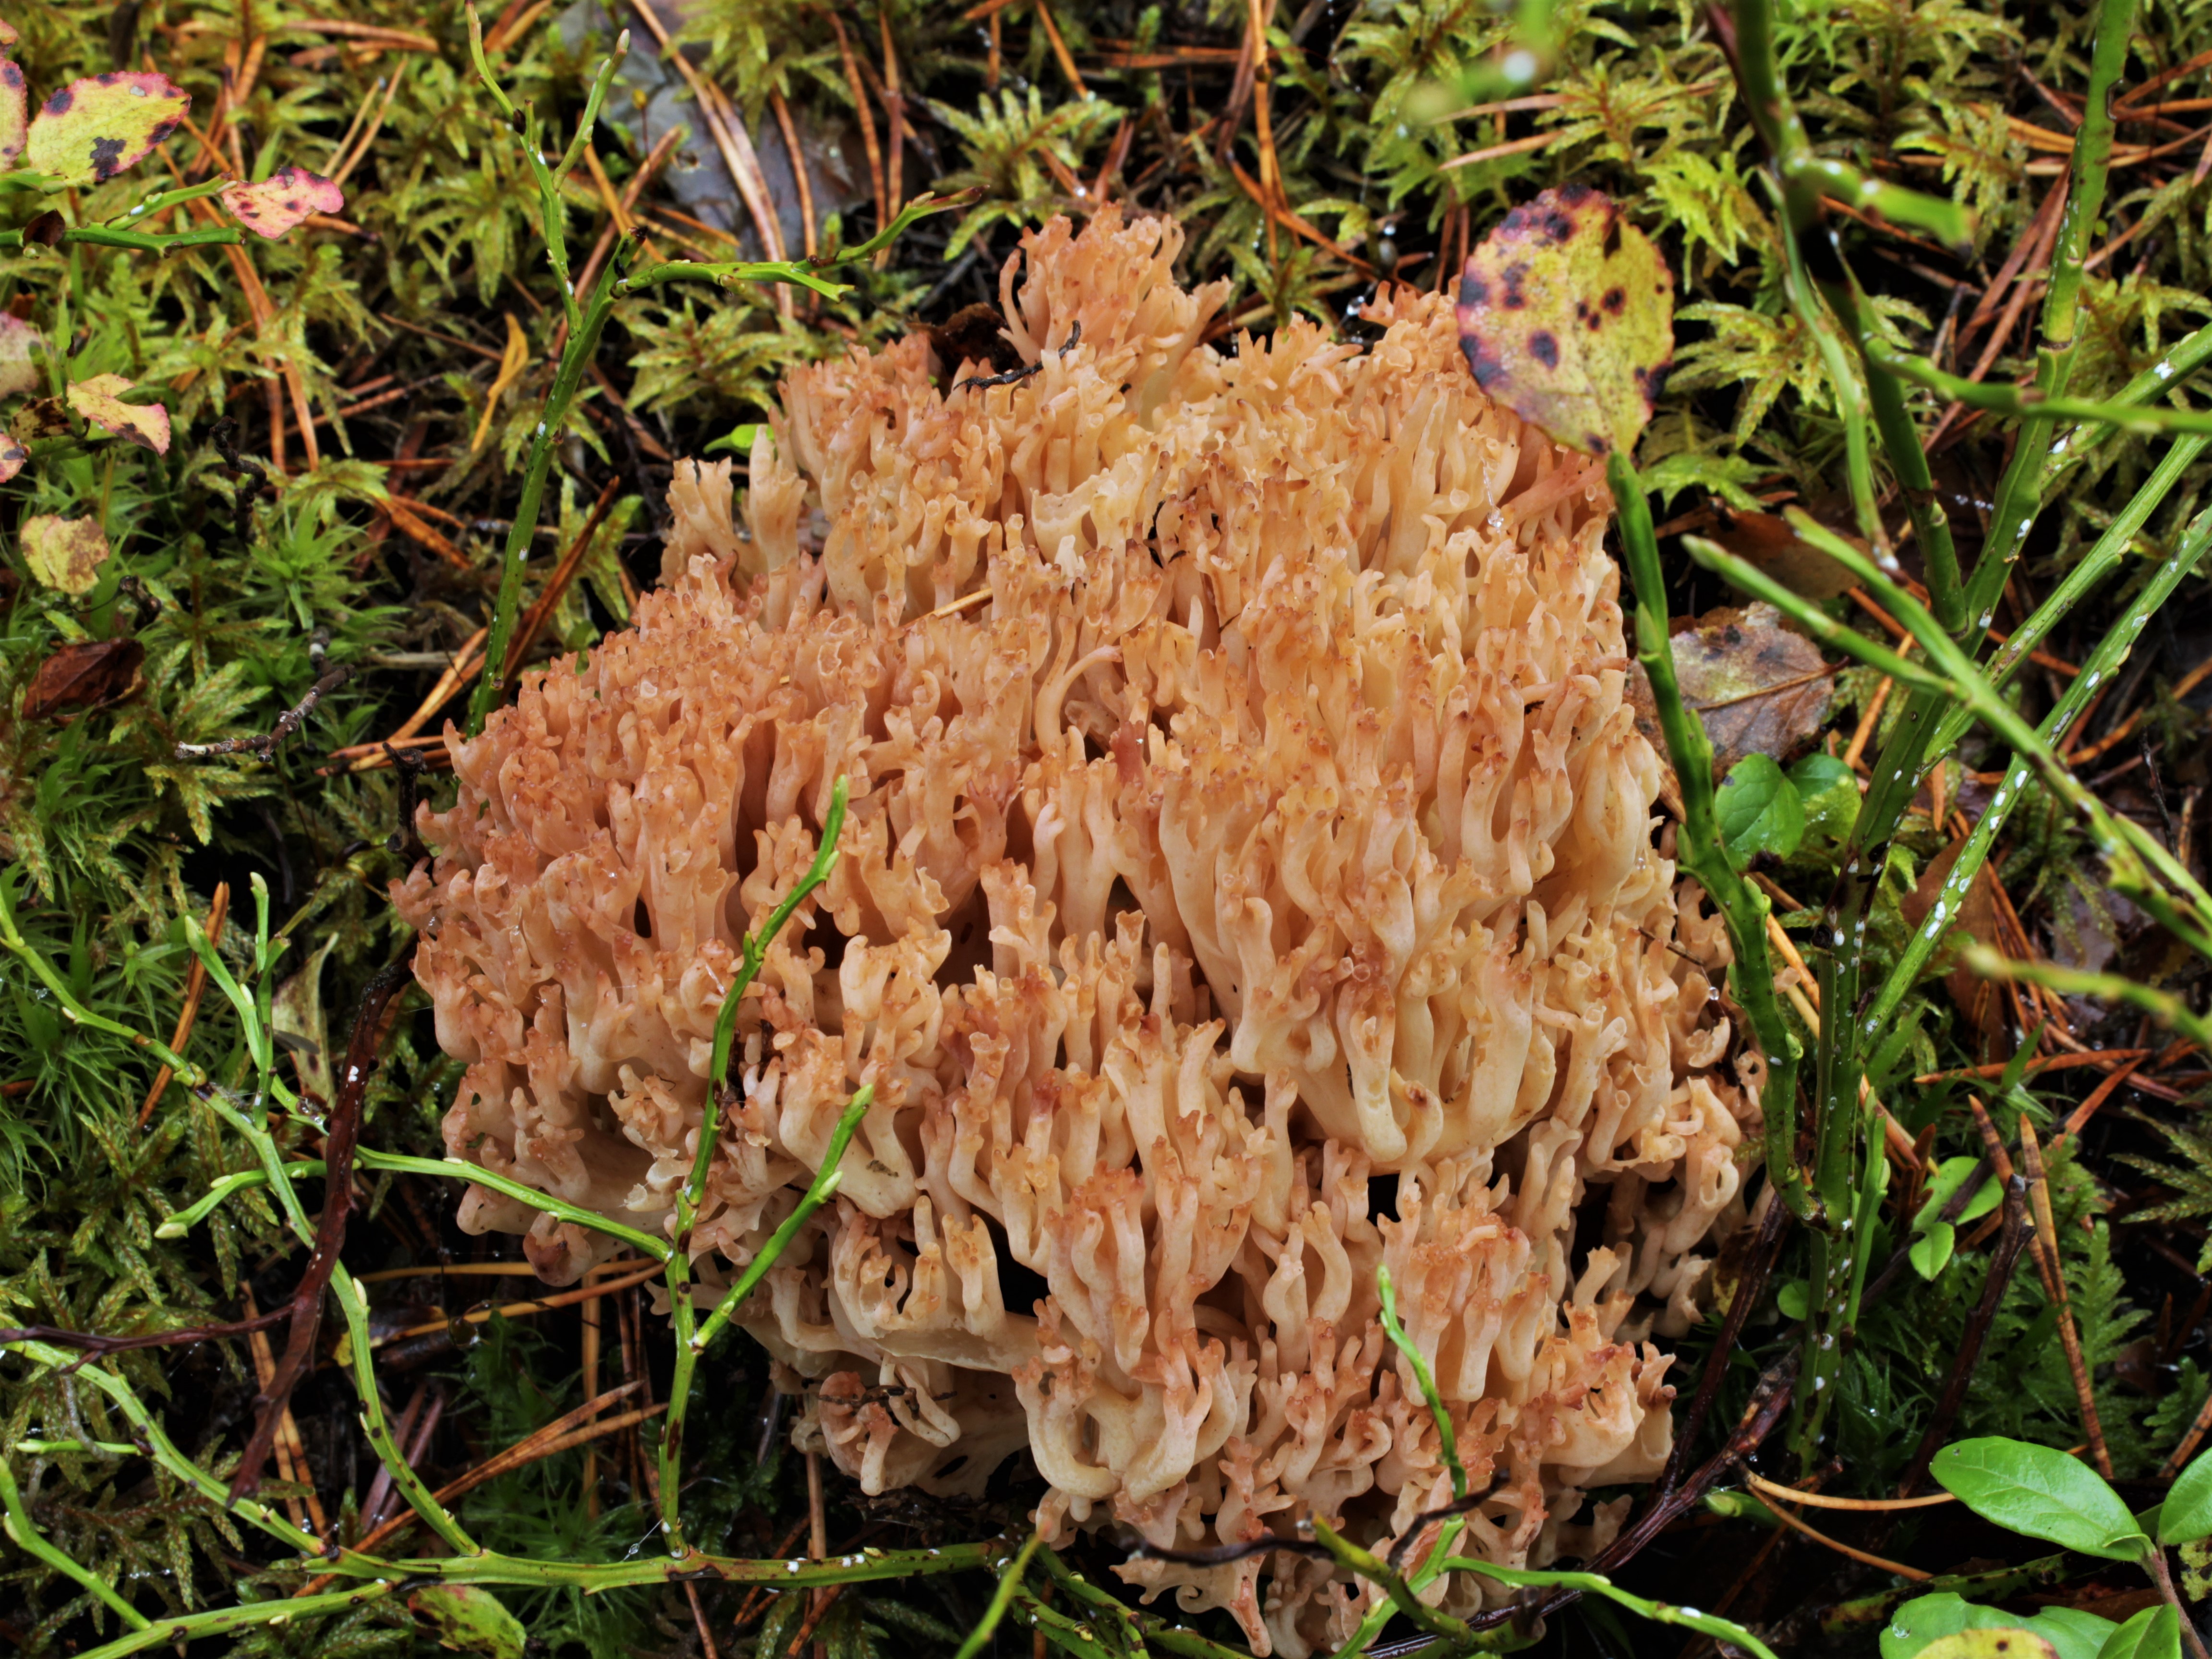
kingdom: Fungi
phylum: Basidiomycota
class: Agaricomycetes
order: Gomphales
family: Gomphaceae
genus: Ramaria
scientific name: Ramaria botrytis
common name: Rosso coral
